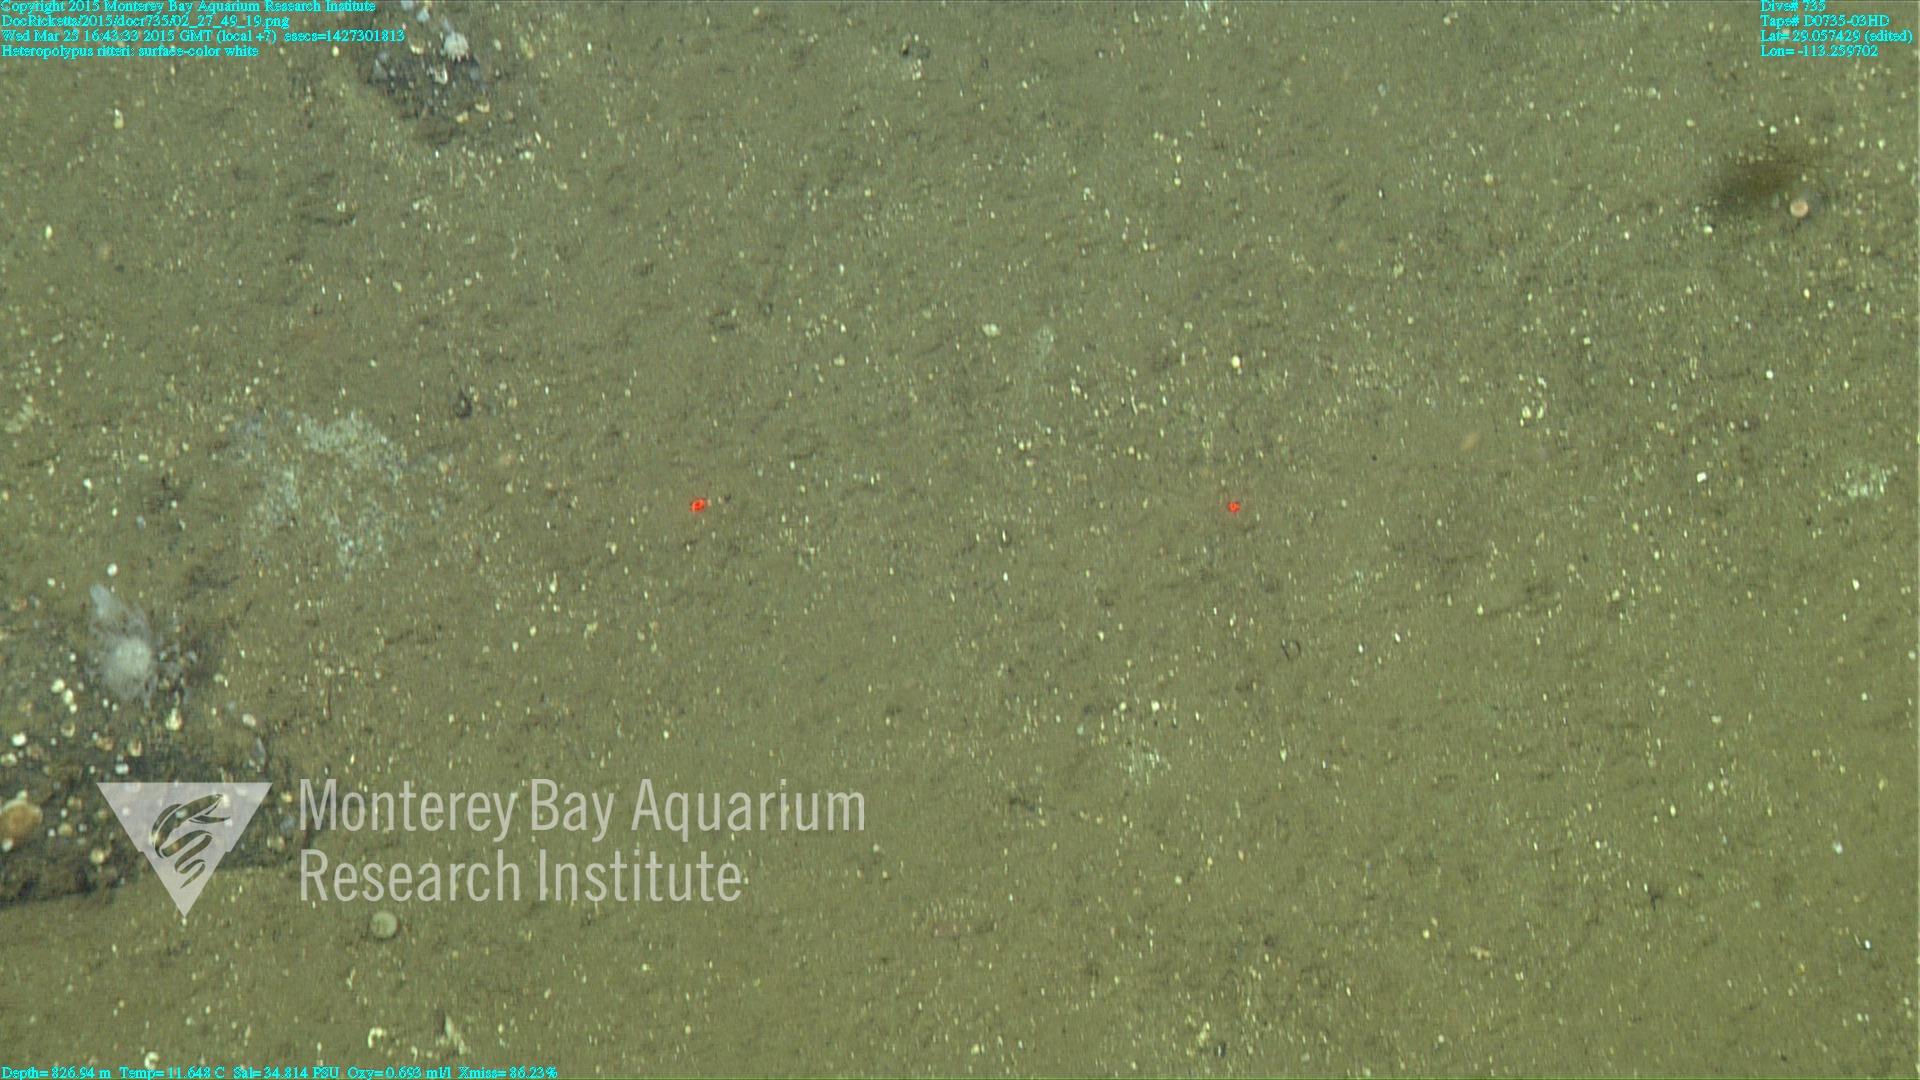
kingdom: Animalia
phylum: Cnidaria
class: Anthozoa
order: Scleralcyonacea
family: Coralliidae
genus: Heteropolypus
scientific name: Heteropolypus ritteri
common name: Ritter's soft coral
